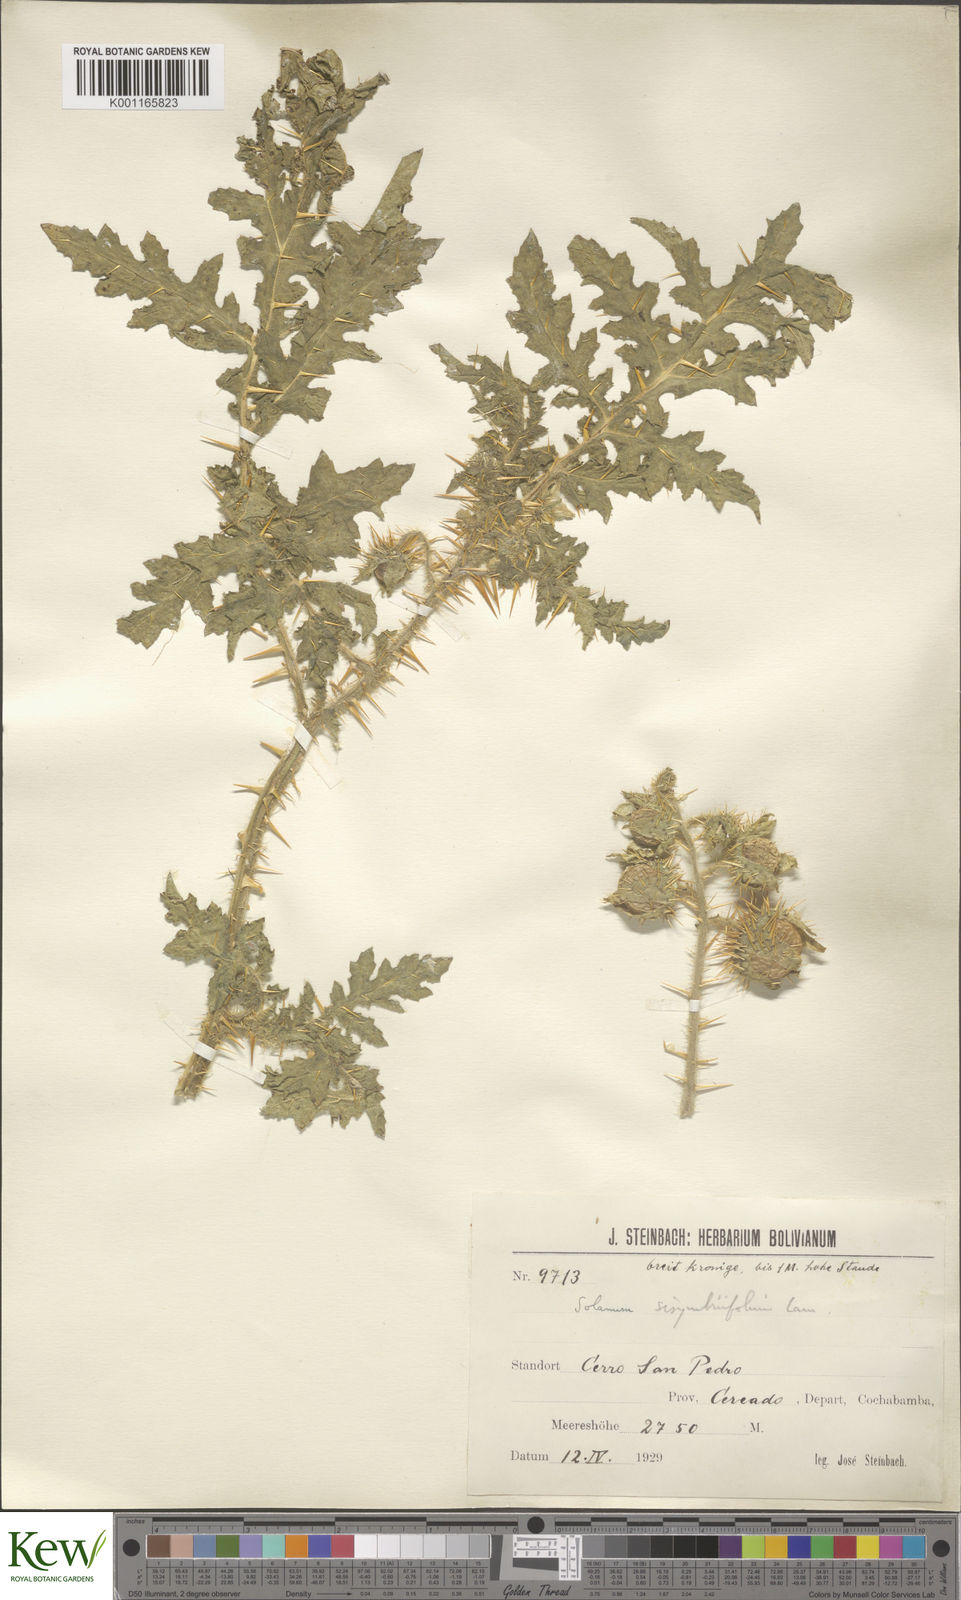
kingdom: Plantae
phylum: Tracheophyta
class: Magnoliopsida
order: Solanales
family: Solanaceae
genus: Solanum
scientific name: Solanum sisymbriifolium
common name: Red buffalo-bur
